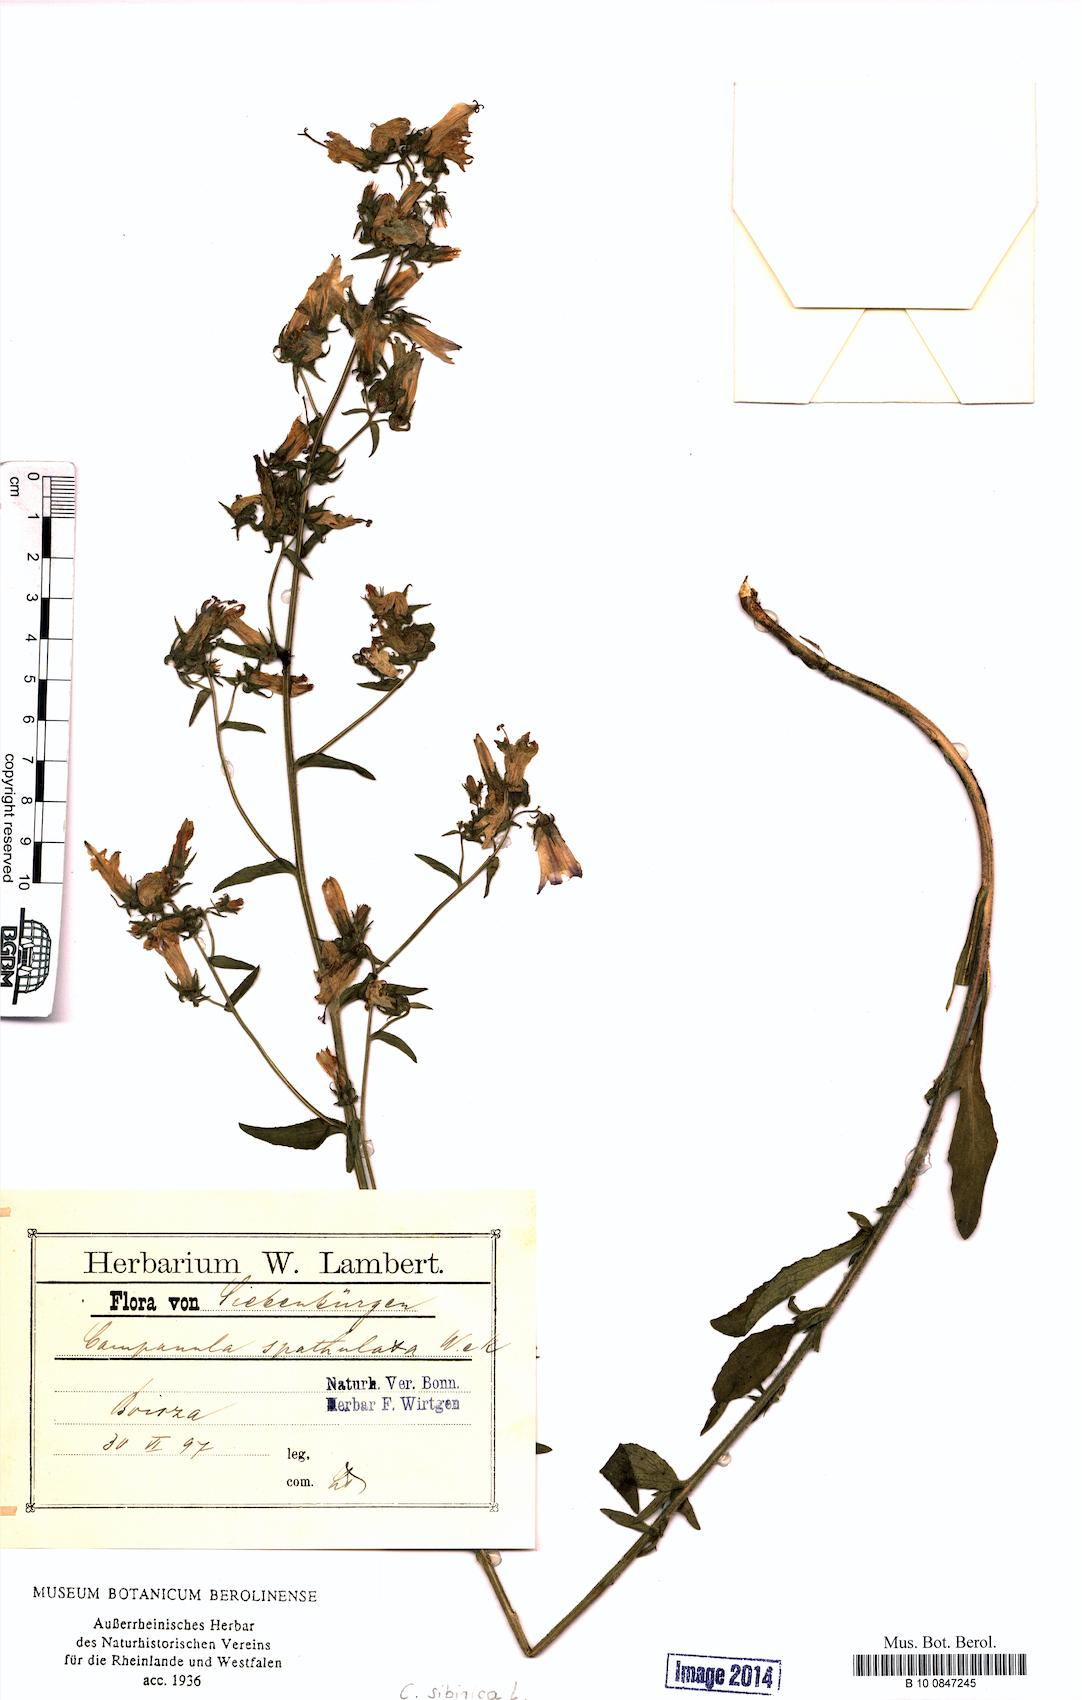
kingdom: Plantae
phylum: Tracheophyta
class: Magnoliopsida
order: Asterales
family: Campanulaceae
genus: Campanula
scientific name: Campanula sibirica
